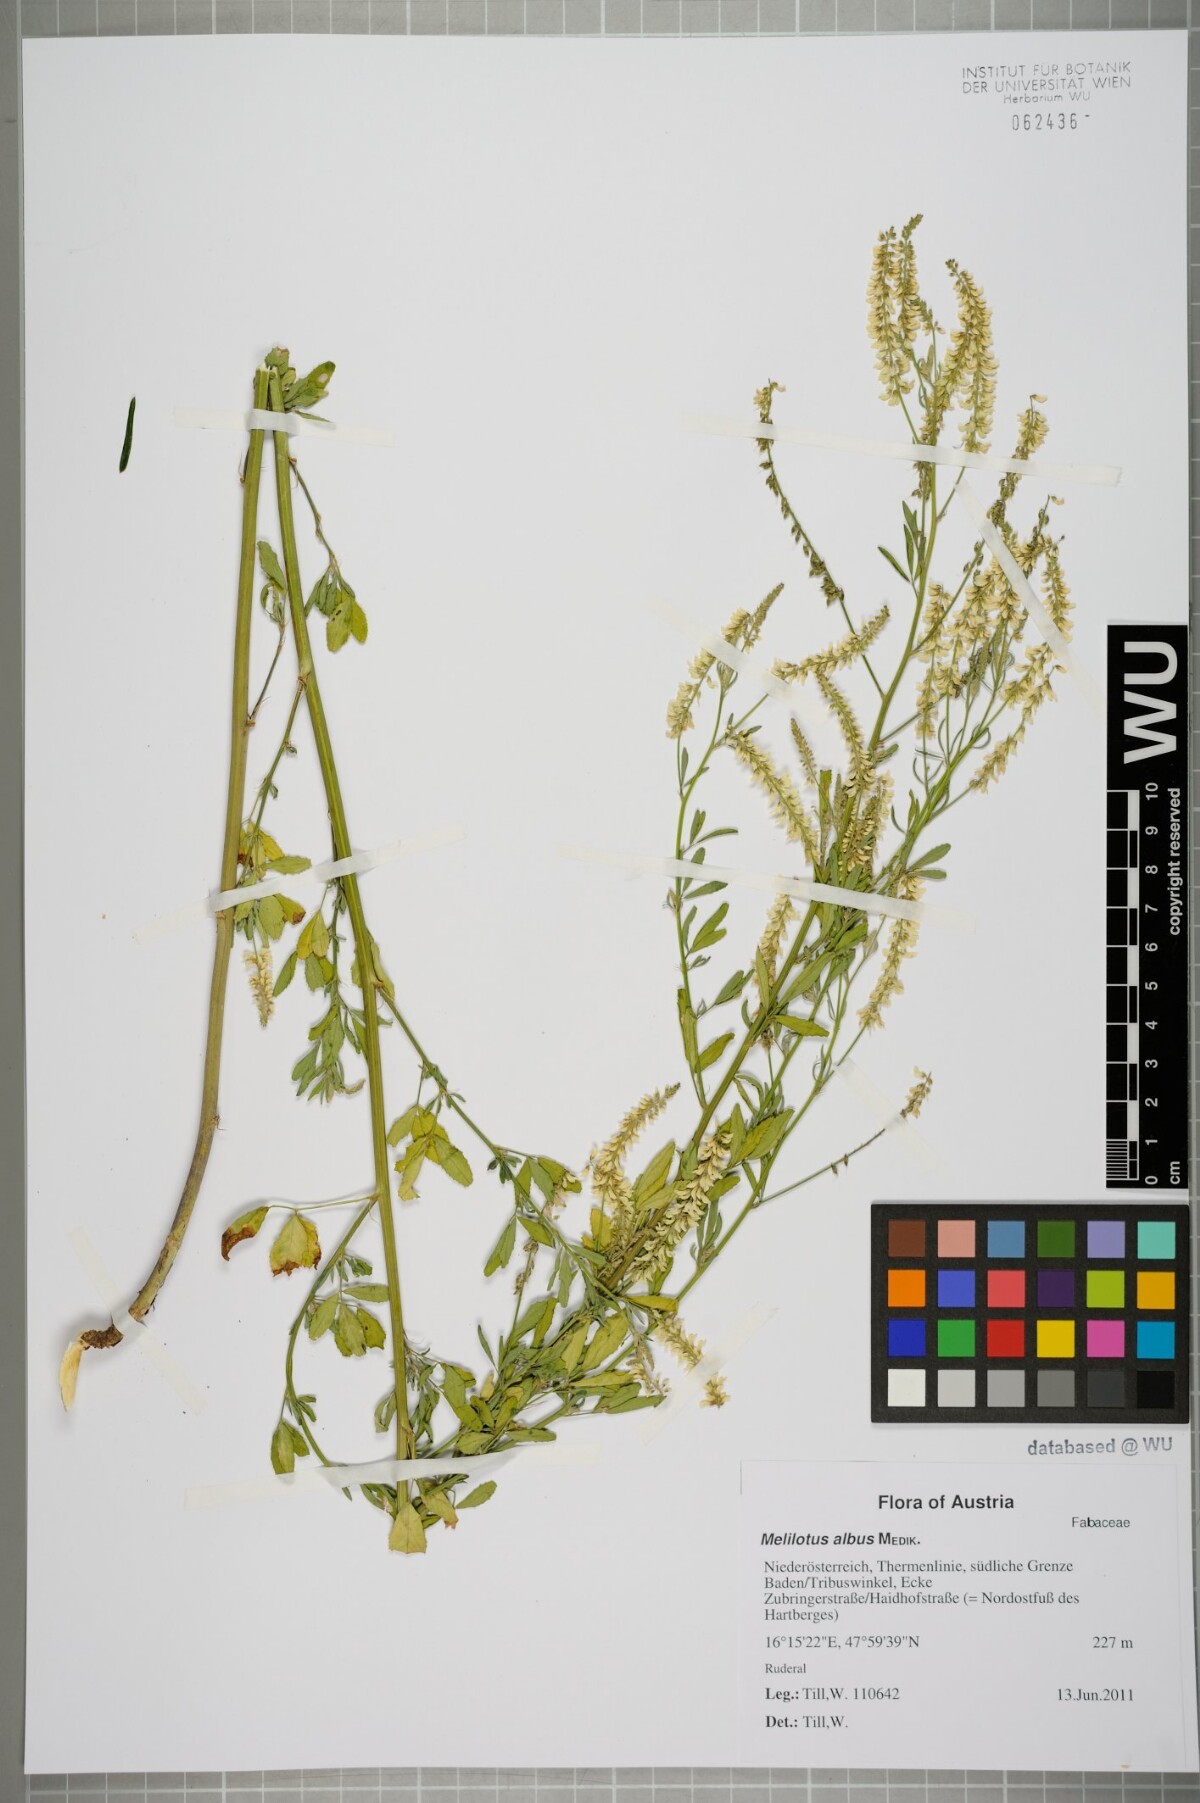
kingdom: Plantae
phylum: Tracheophyta
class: Magnoliopsida
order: Fabales
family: Fabaceae
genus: Melilotus
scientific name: Melilotus albus
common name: White melilot
